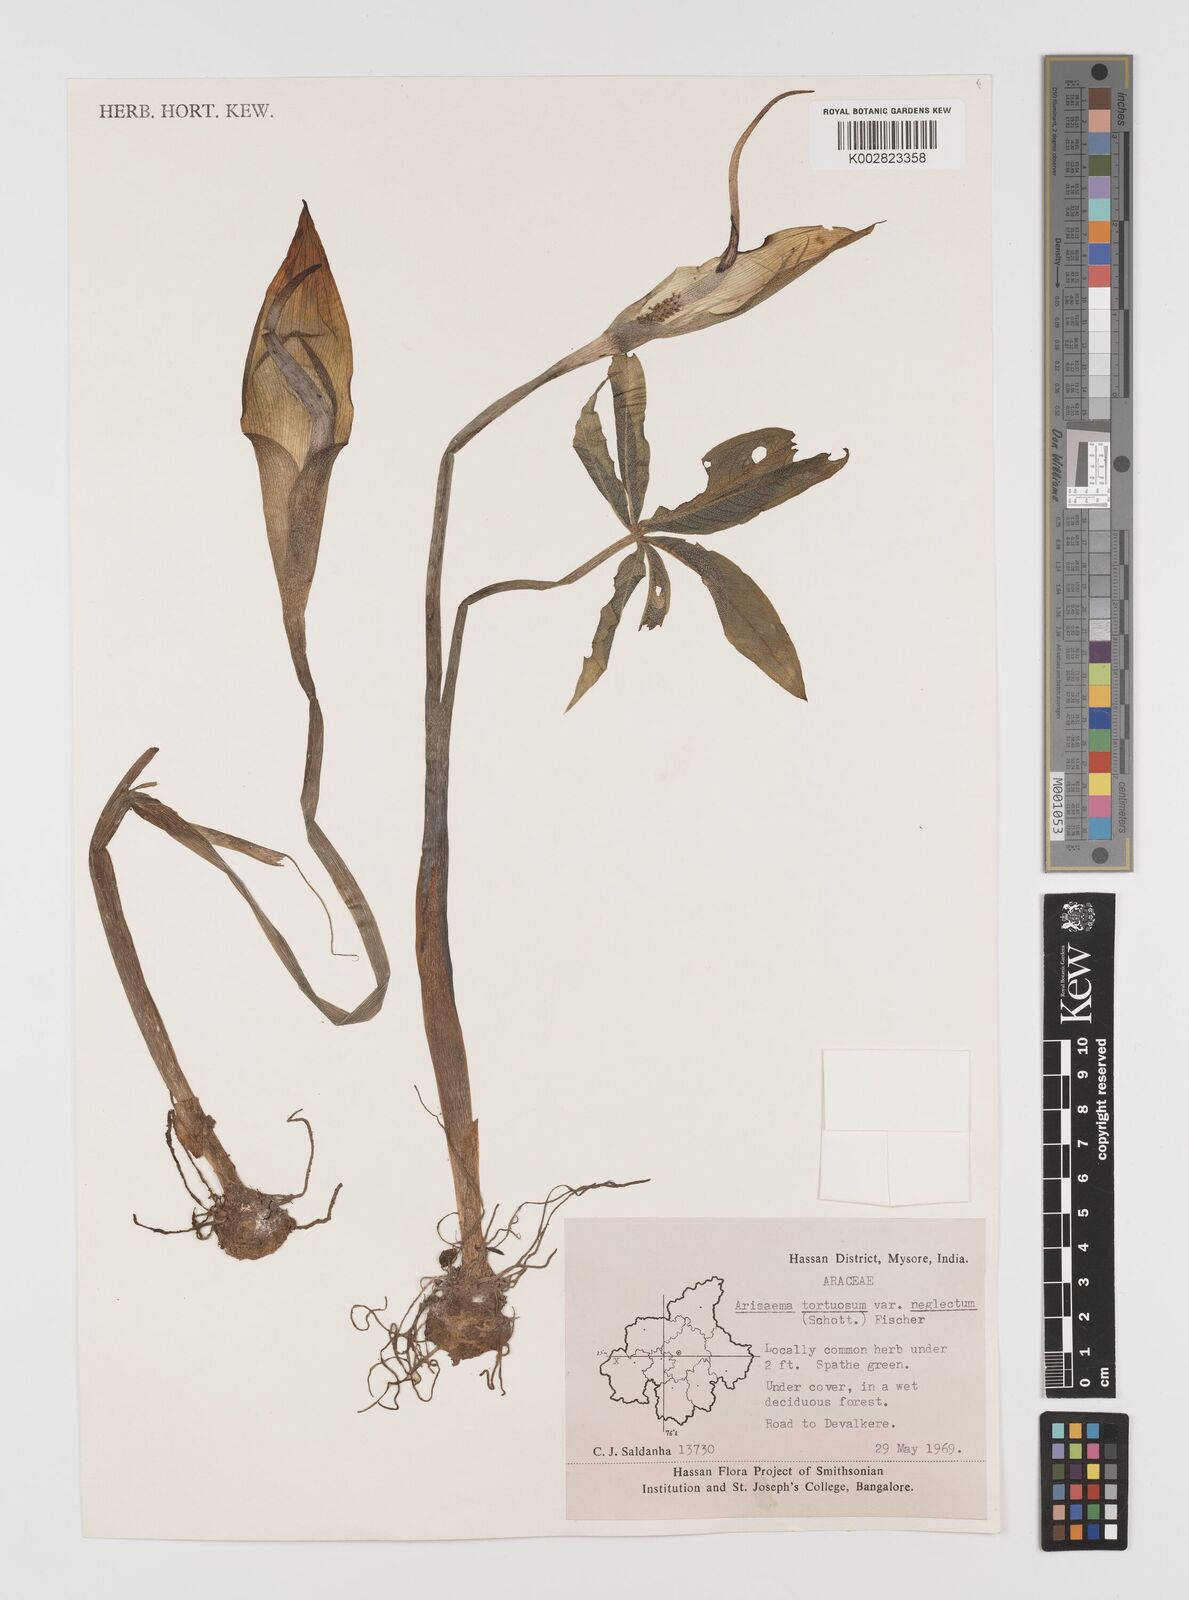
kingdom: Plantae
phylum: Tracheophyta
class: Liliopsida
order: Alismatales
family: Araceae
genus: Arisaema
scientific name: Arisaema tortuosum
